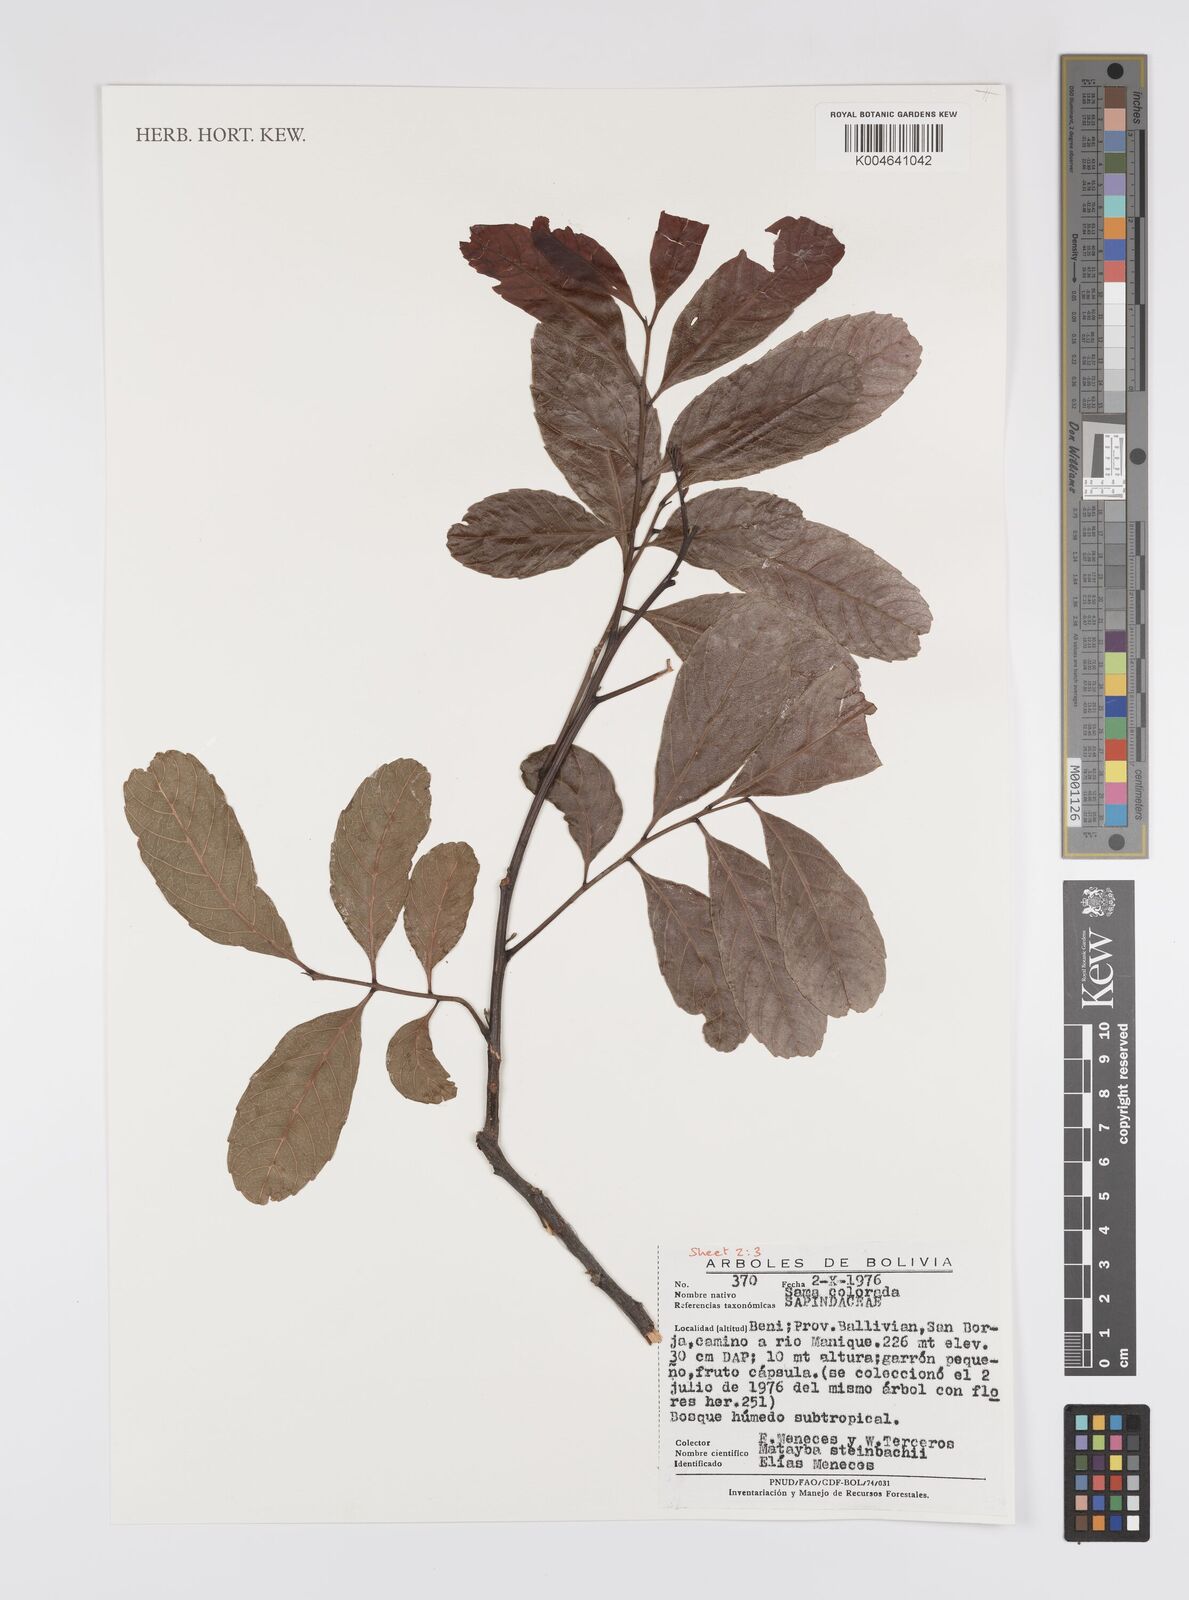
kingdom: Plantae
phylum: Tracheophyta
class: Magnoliopsida
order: Sapindales
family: Sapindaceae
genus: Matayba
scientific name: Matayba guianensis
